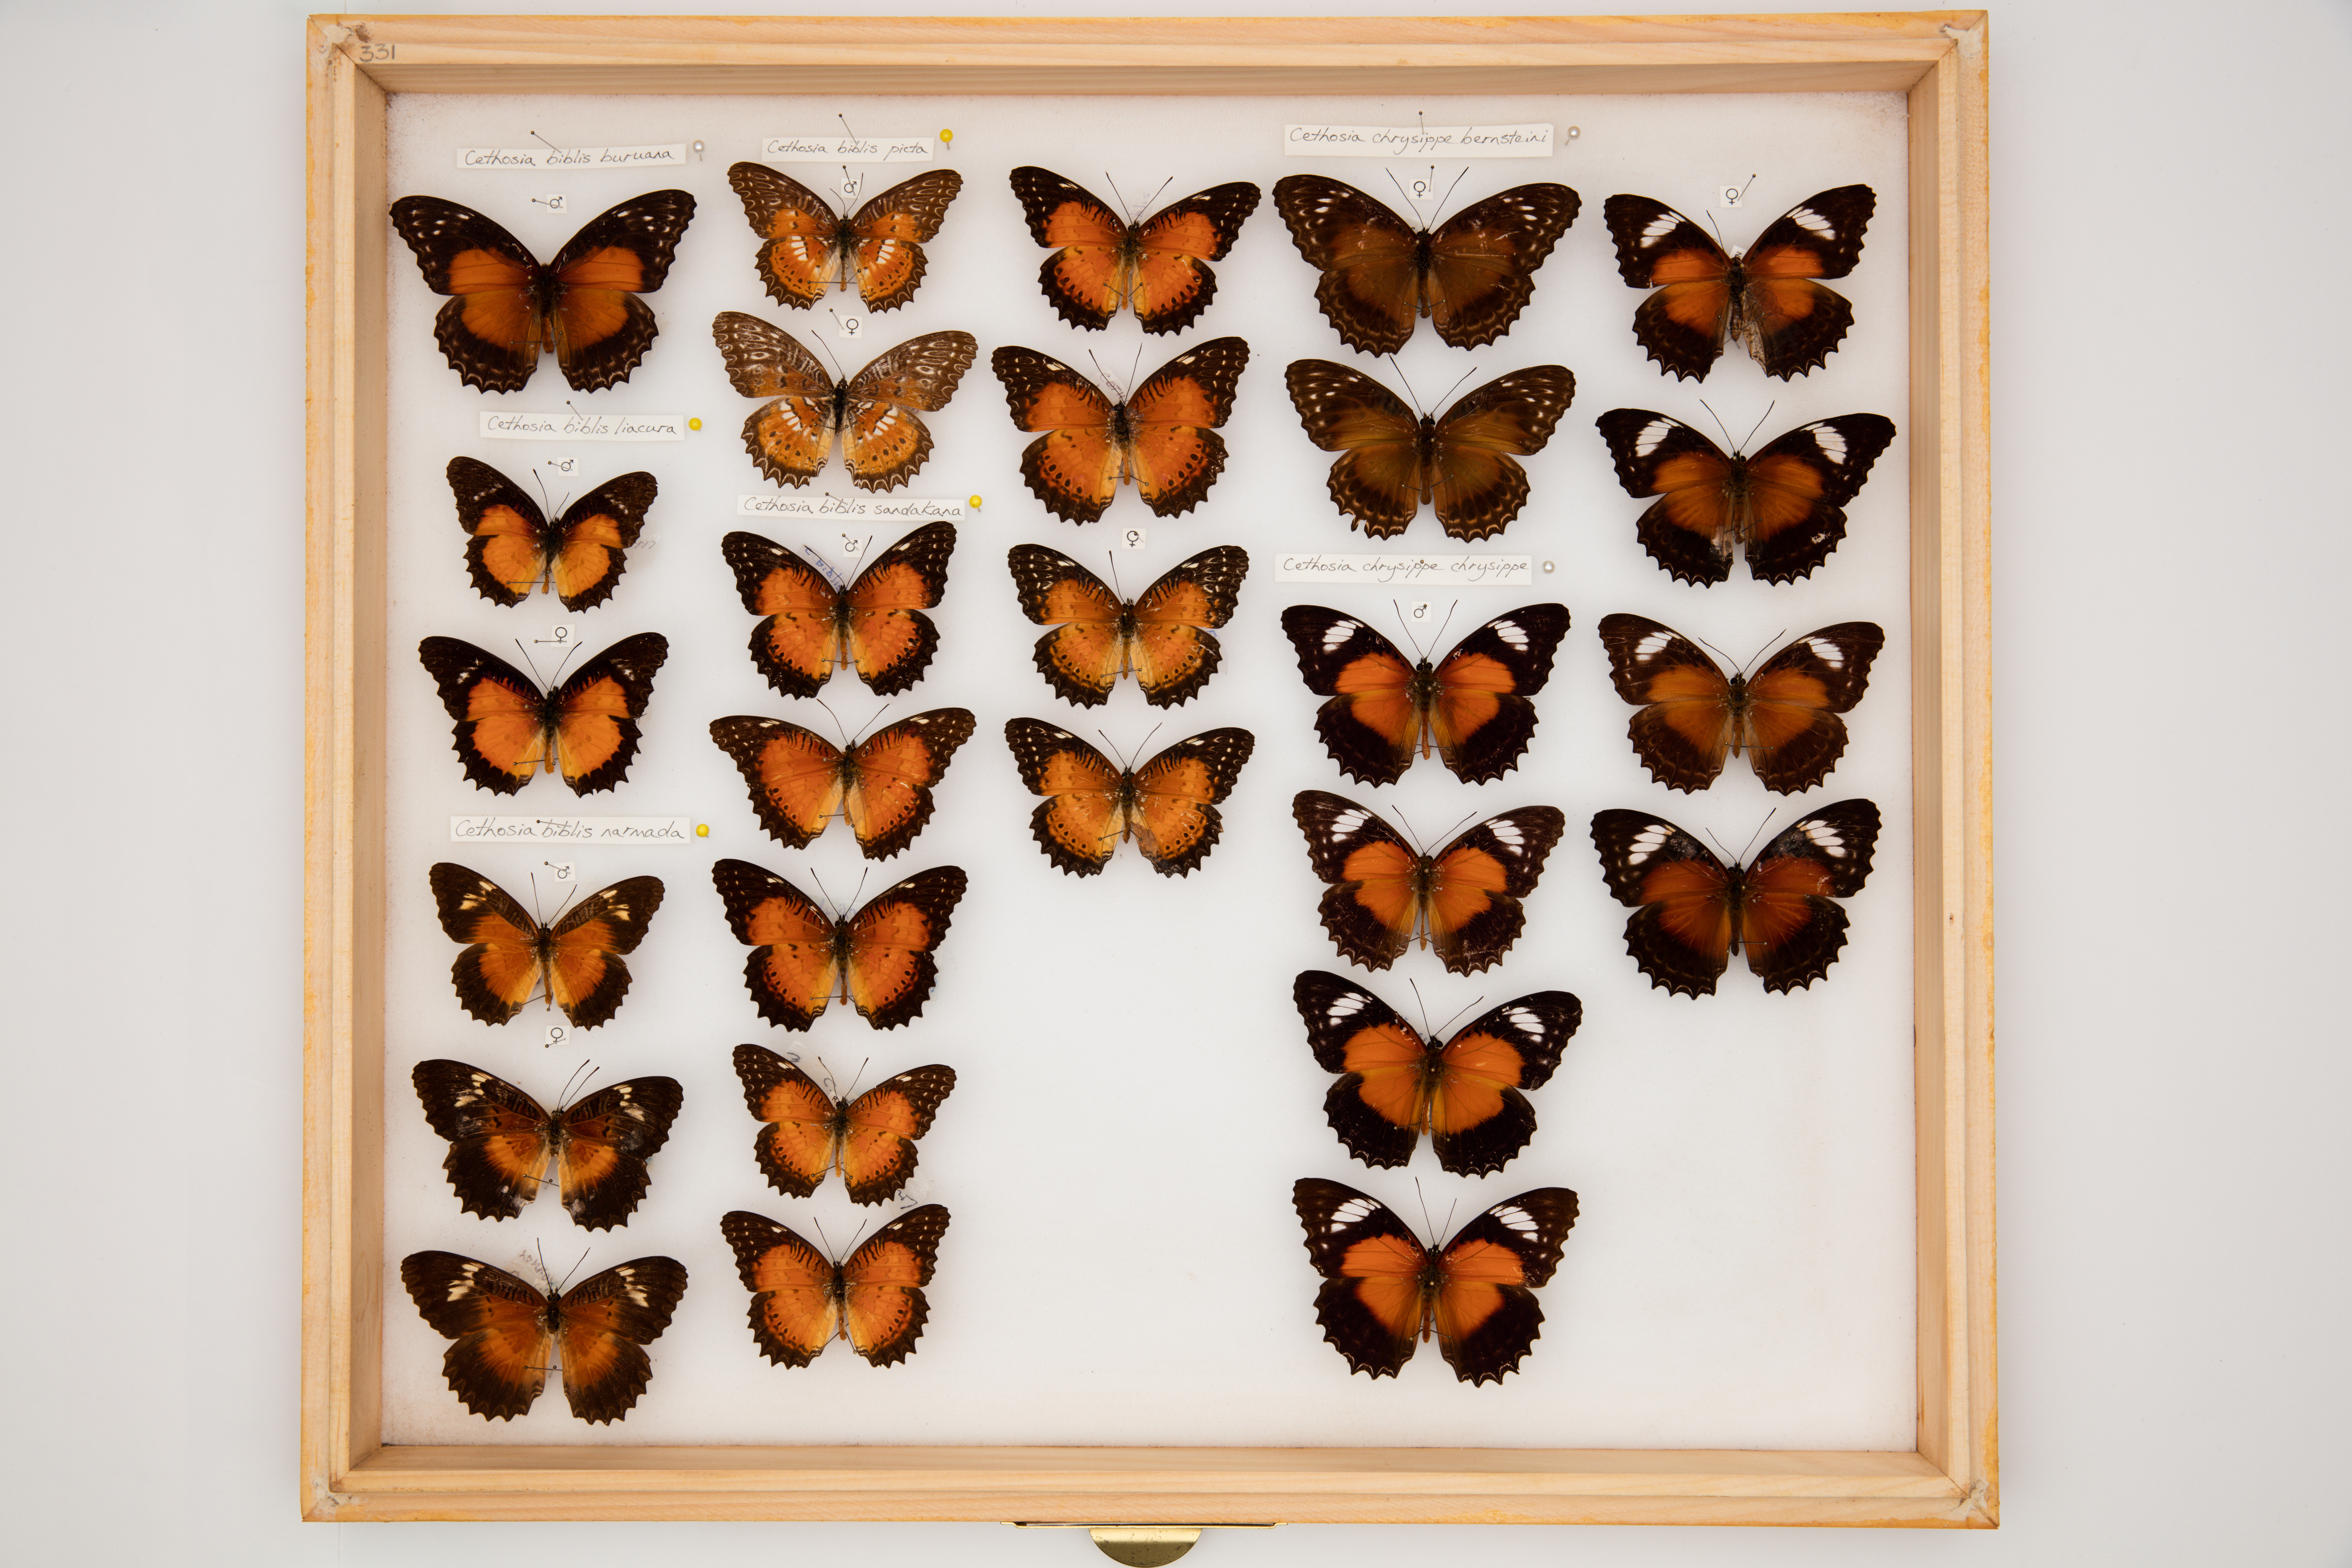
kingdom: Animalia
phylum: Arthropoda
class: Insecta
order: Lepidoptera
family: Nymphalidae
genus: Cethosia
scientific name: Cethosia biblis
